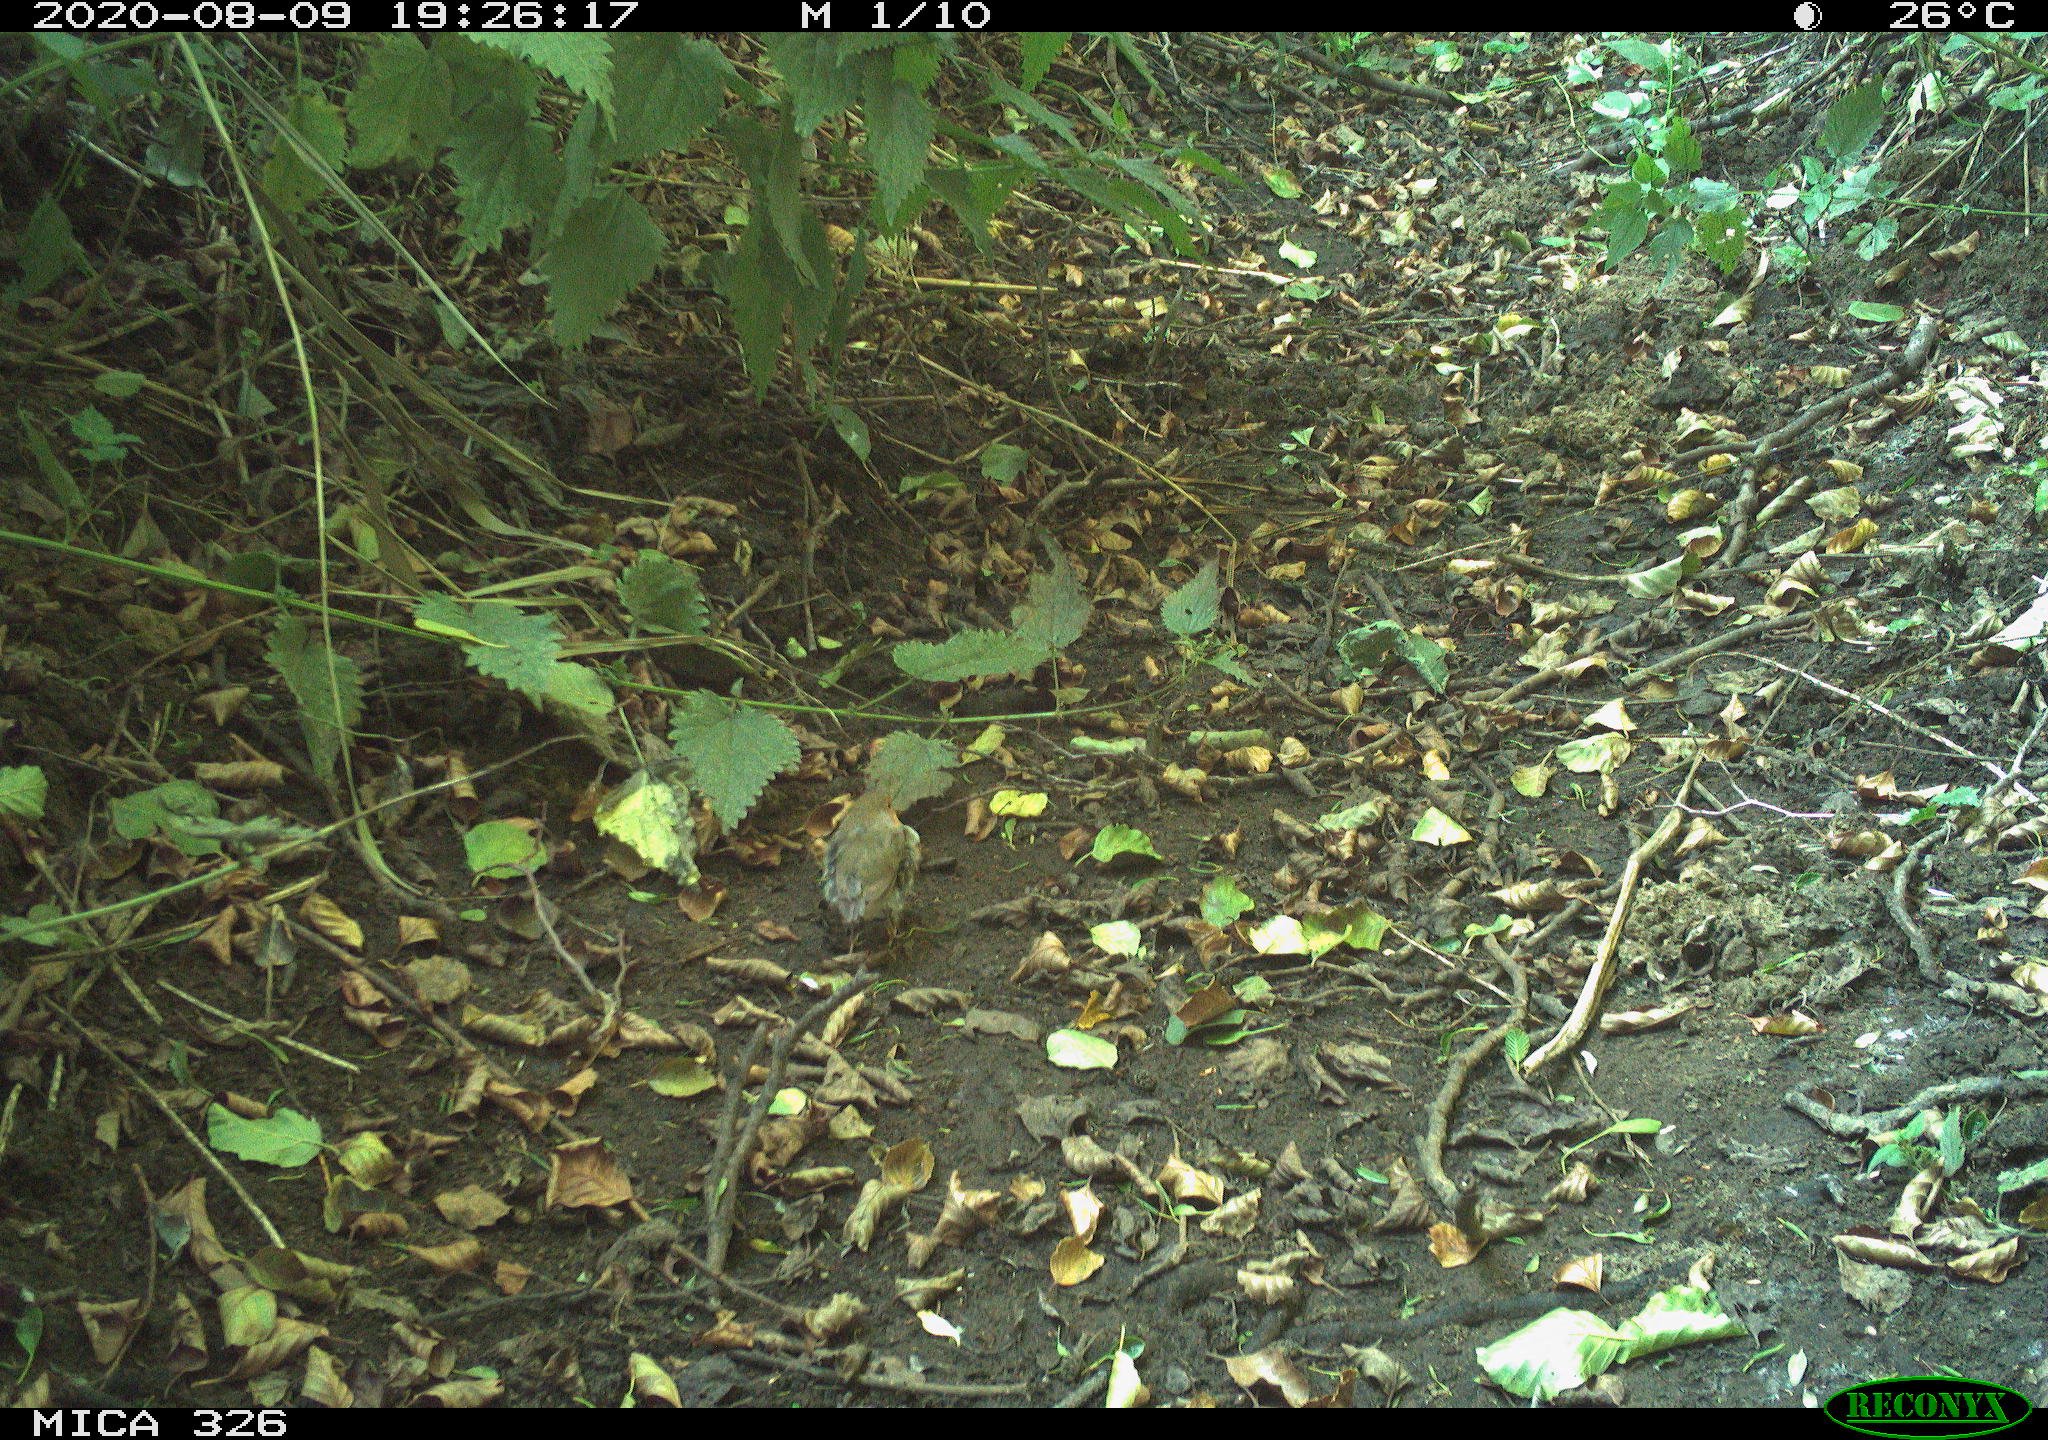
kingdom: Animalia
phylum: Chordata
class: Aves
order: Passeriformes
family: Muscicapidae
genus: Erithacus
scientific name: Erithacus rubecula
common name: European robin
